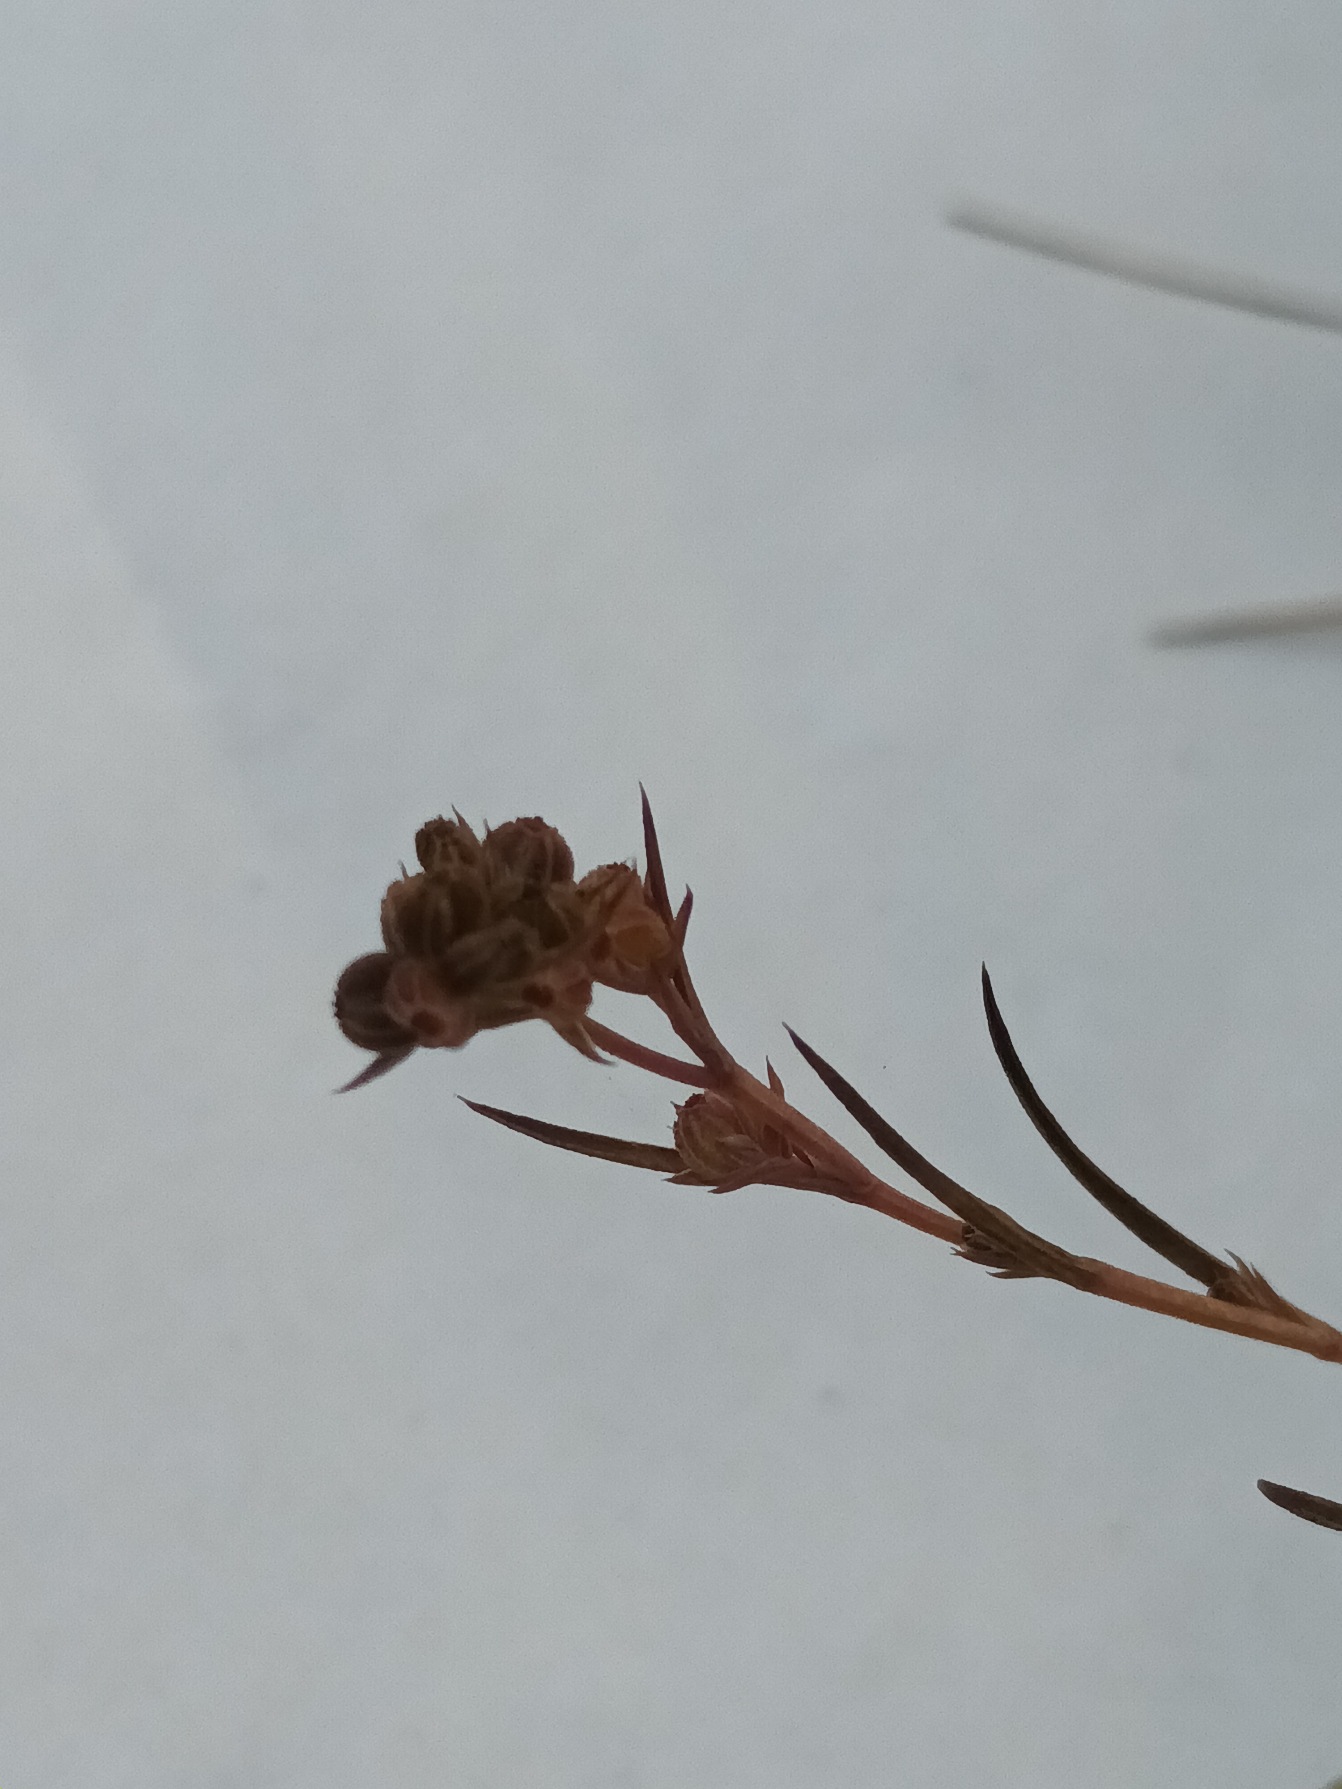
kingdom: Plantae
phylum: Tracheophyta
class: Magnoliopsida
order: Apiales
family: Apiaceae
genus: Bupleurum
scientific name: Bupleurum tenuissimum
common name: Smalbladet hareøre
